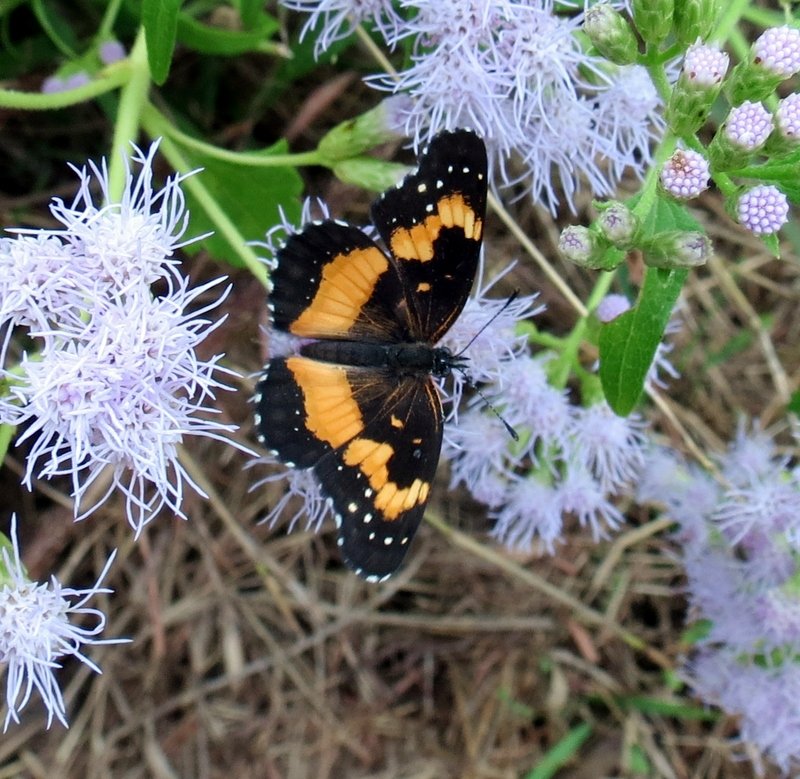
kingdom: Animalia
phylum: Arthropoda
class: Insecta
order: Lepidoptera
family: Nymphalidae
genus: Chlosyne
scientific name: Chlosyne lacinia
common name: Bordered Patch
